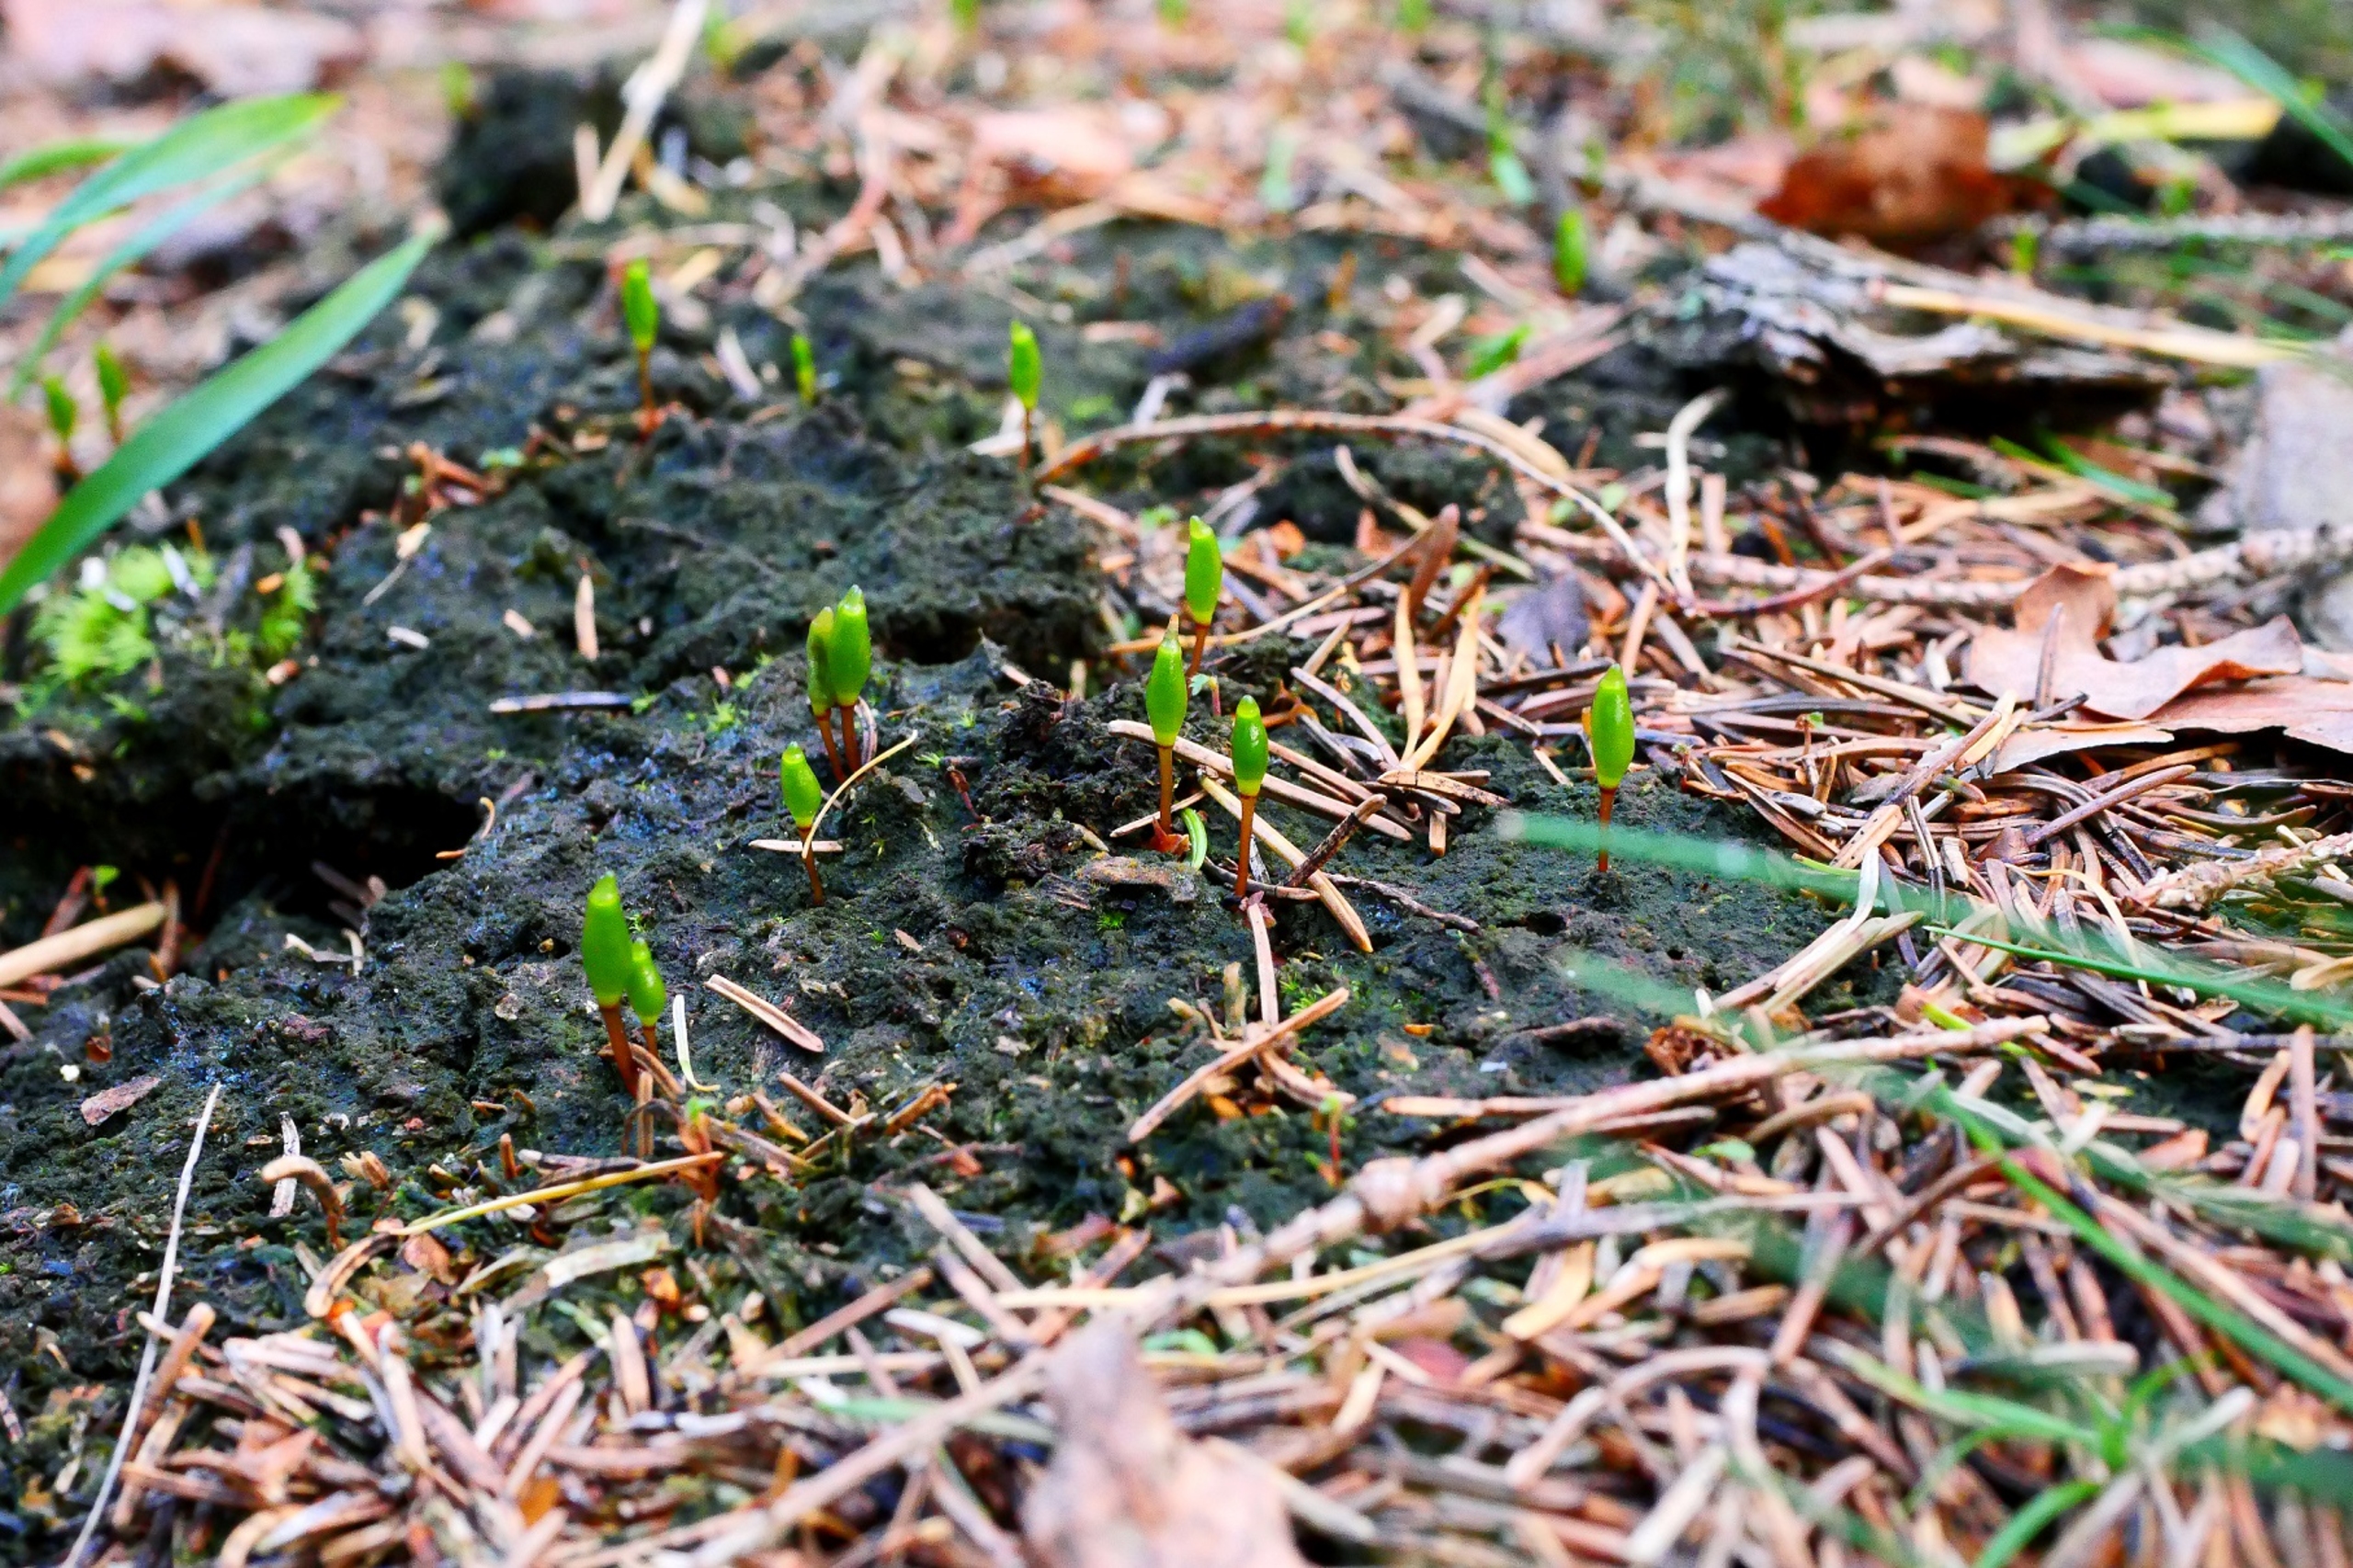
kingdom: Plantae
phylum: Bryophyta
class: Bryopsida
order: Buxbaumiales
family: Buxbaumiaceae
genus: Buxbaumia
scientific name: Buxbaumia viridis
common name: Grøn buxbaumia
